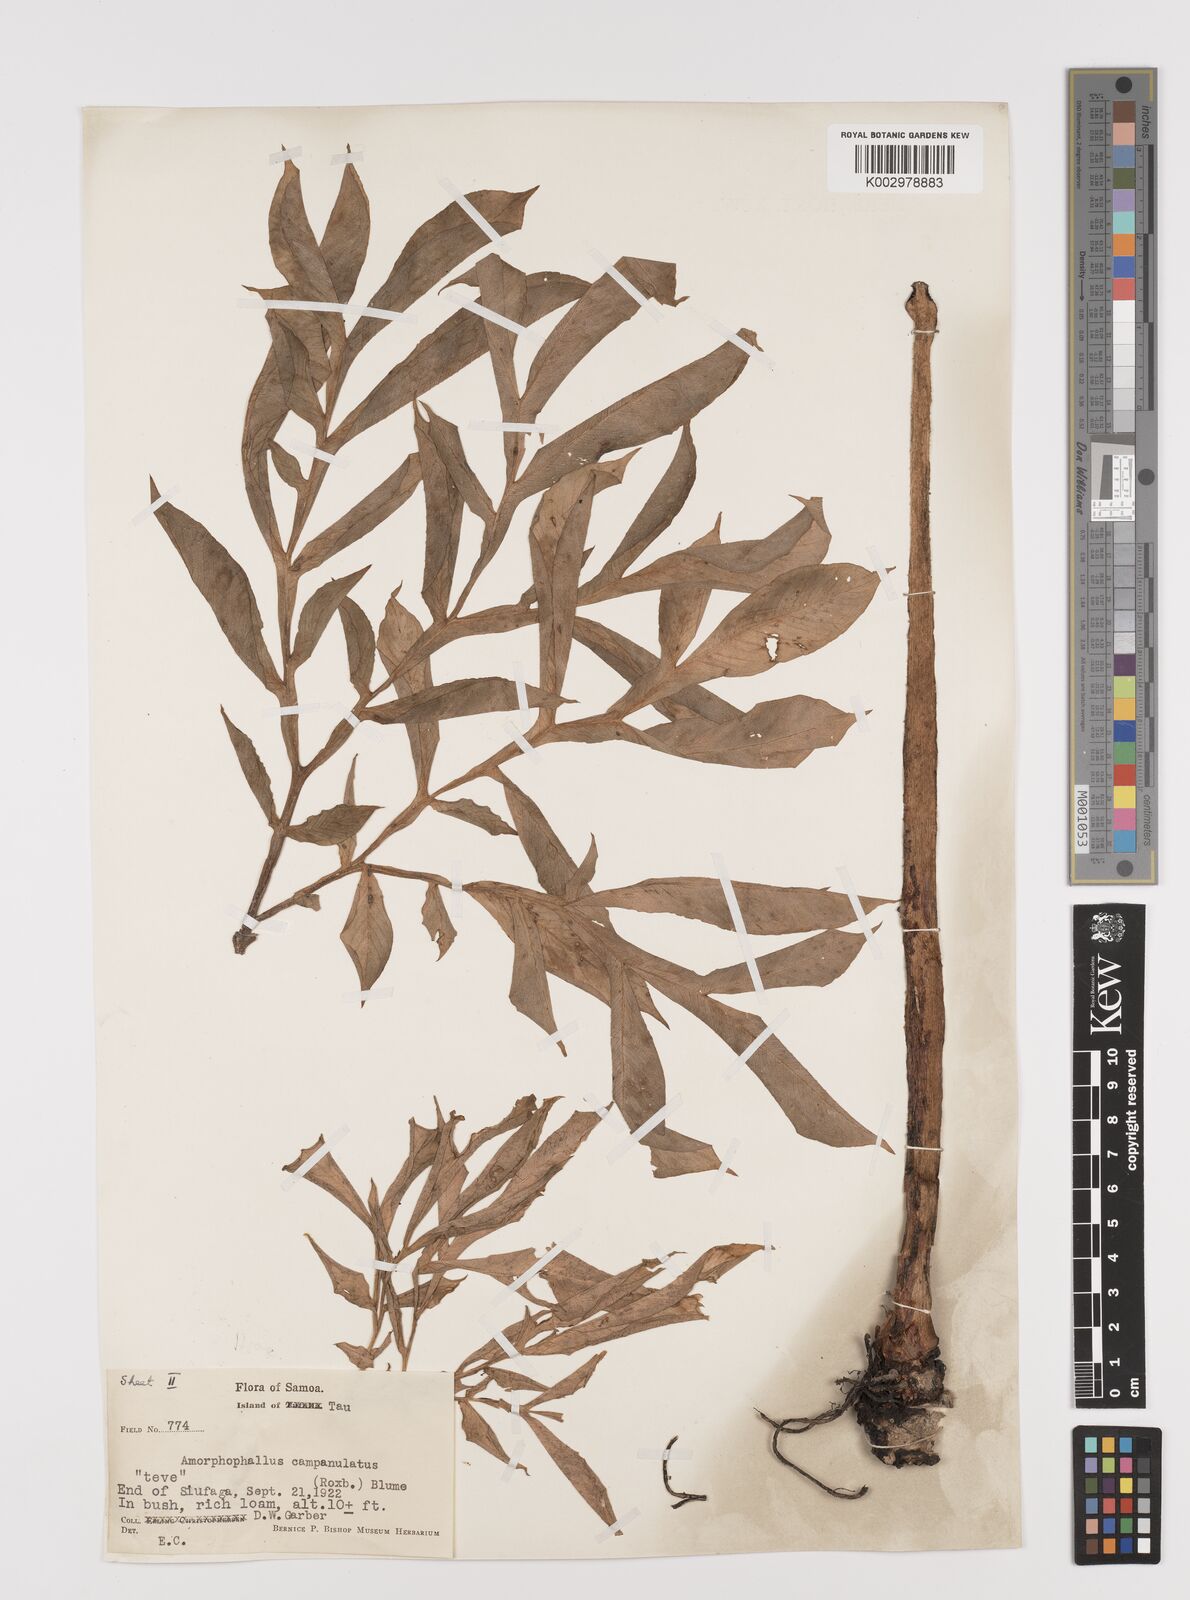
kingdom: Plantae
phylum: Tracheophyta
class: Liliopsida
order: Alismatales
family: Araceae
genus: Amorphophallus
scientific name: Amorphophallus paeoniifolius
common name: Telinga-potato
